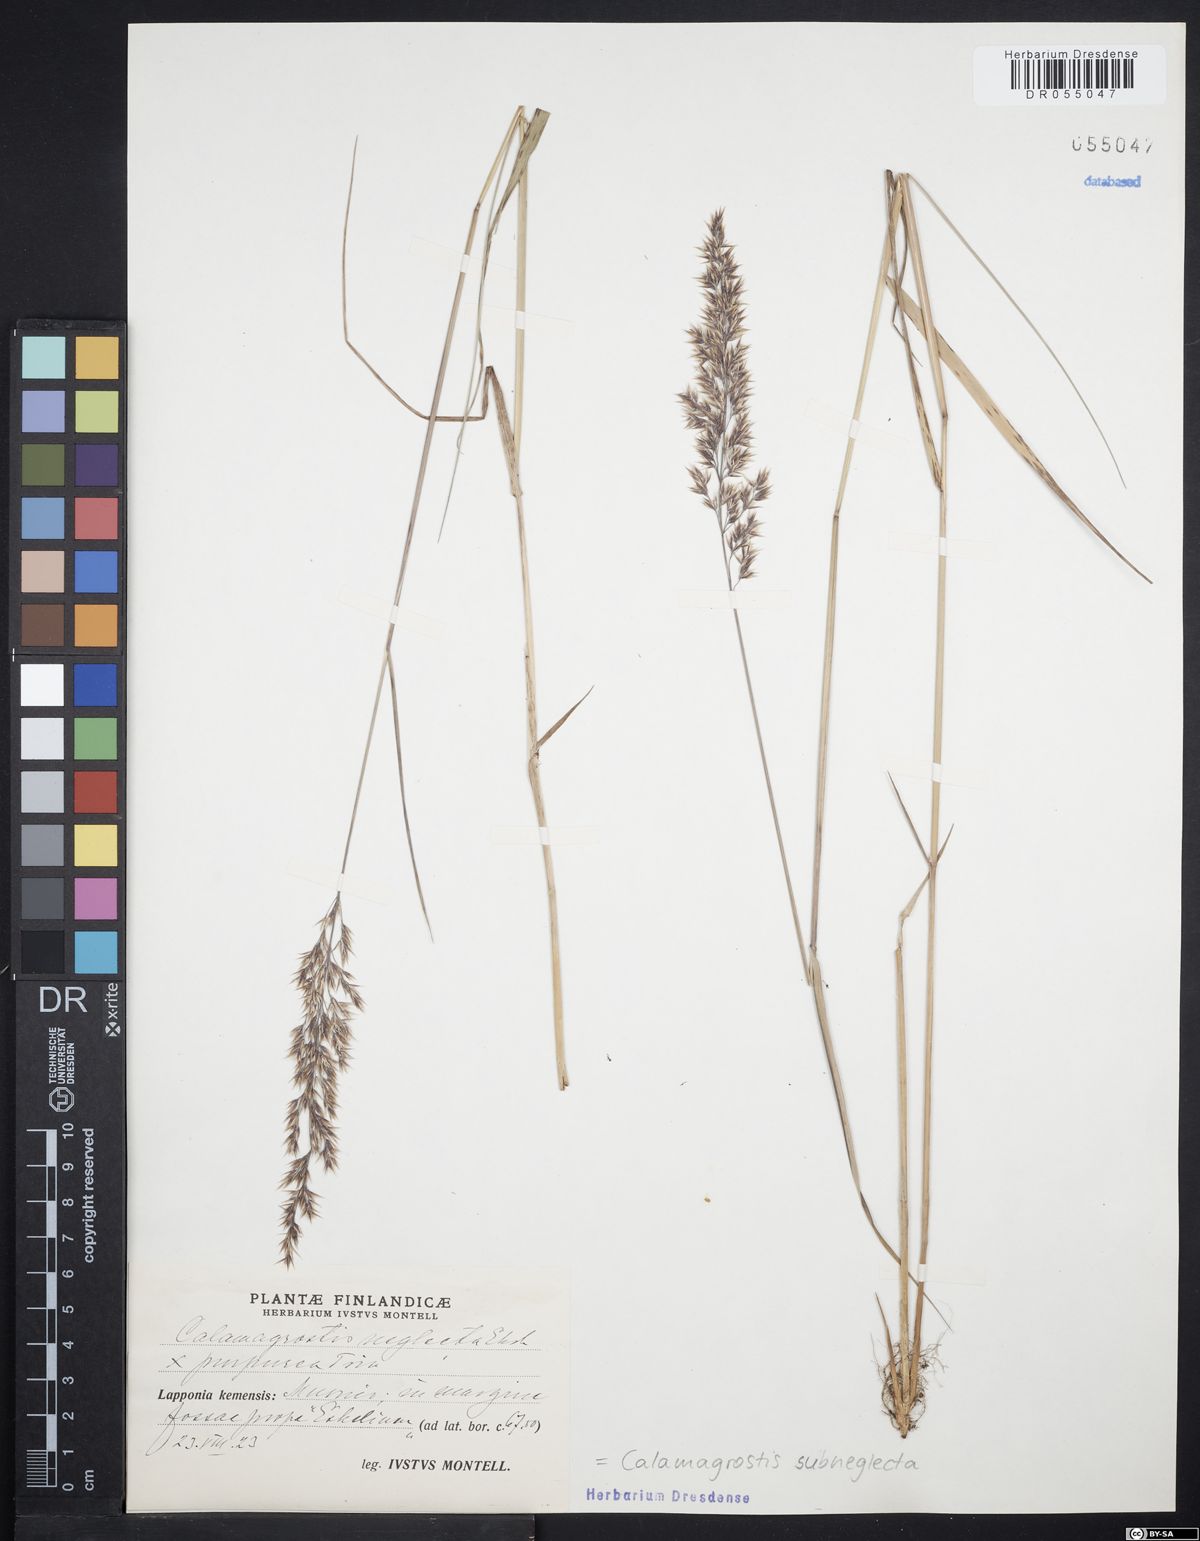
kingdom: Plantae
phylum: Tracheophyta
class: Liliopsida
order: Poales
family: Poaceae
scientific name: Poaceae
